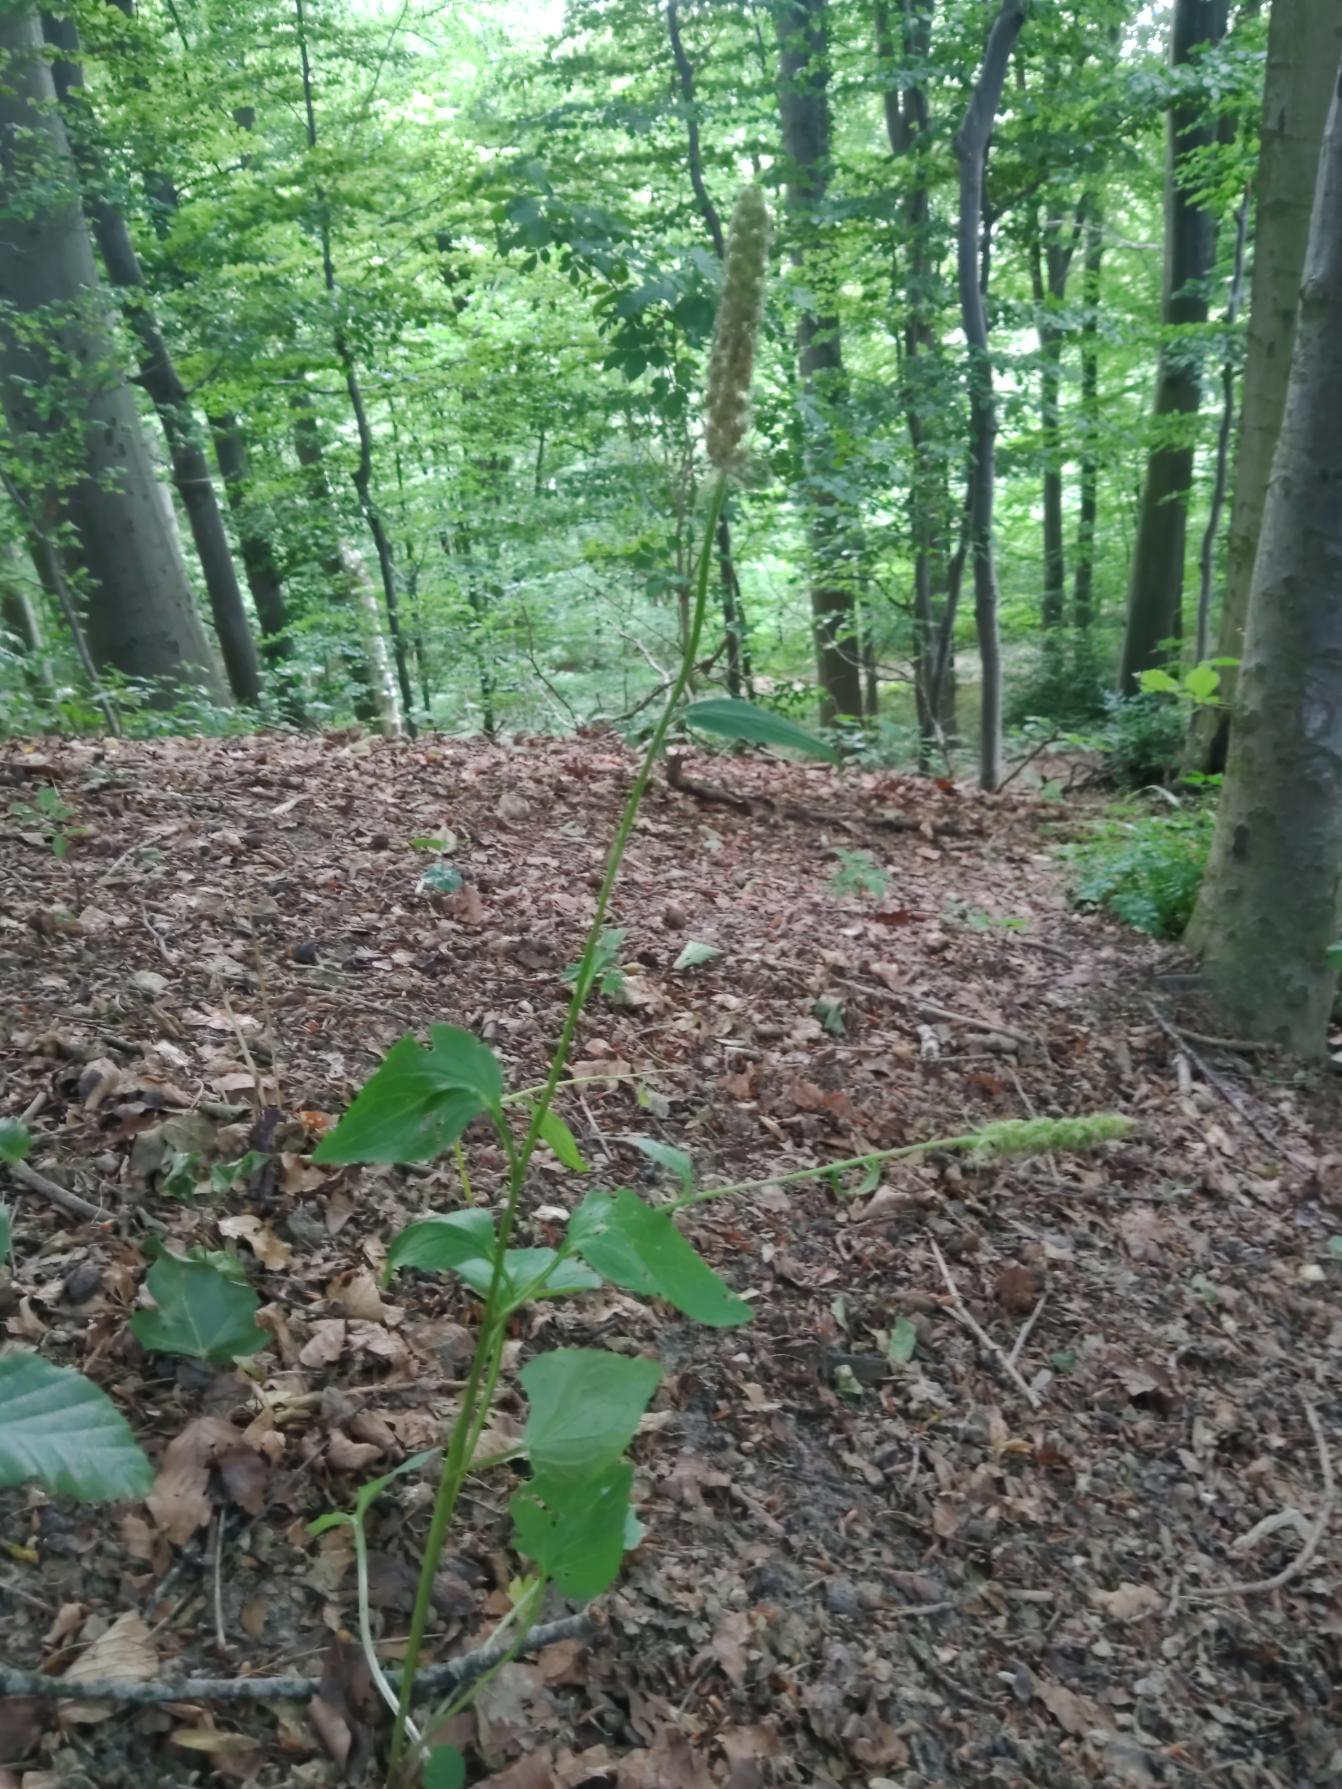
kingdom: Plantae
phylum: Tracheophyta
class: Magnoliopsida
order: Asterales
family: Campanulaceae
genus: Phyteuma
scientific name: Phyteuma spicatum
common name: Aks-rapunsel
